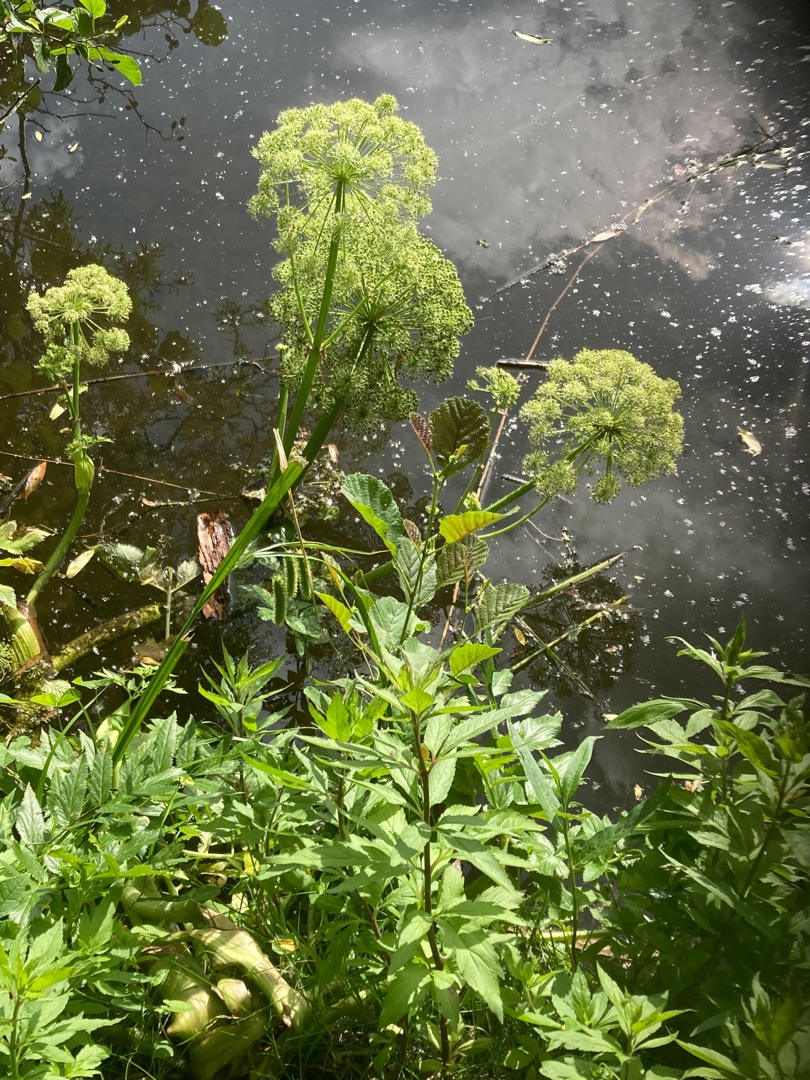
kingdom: Plantae
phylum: Tracheophyta
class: Magnoliopsida
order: Apiales
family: Apiaceae
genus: Angelica
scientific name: Angelica archangelica
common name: Kvan
